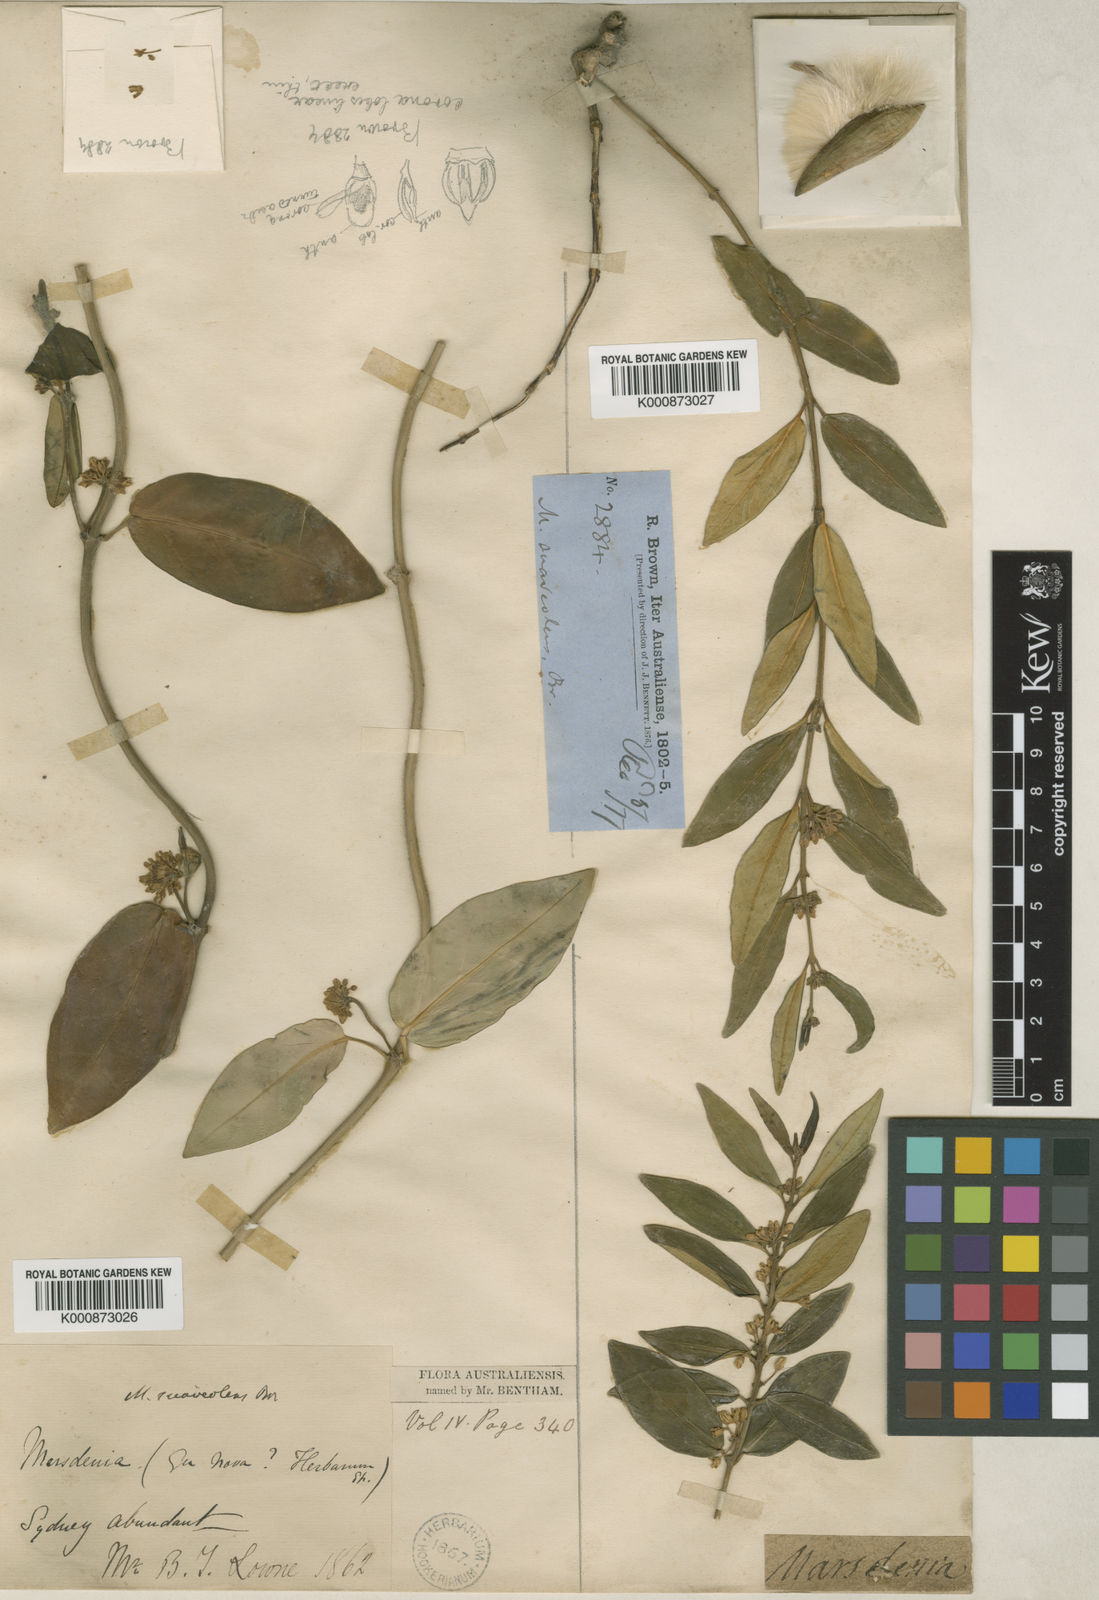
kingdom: Plantae
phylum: Tracheophyta
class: Magnoliopsida
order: Gentianales
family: Apocynaceae
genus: Leichhardtia
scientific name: Leichhardtia suaveolens
